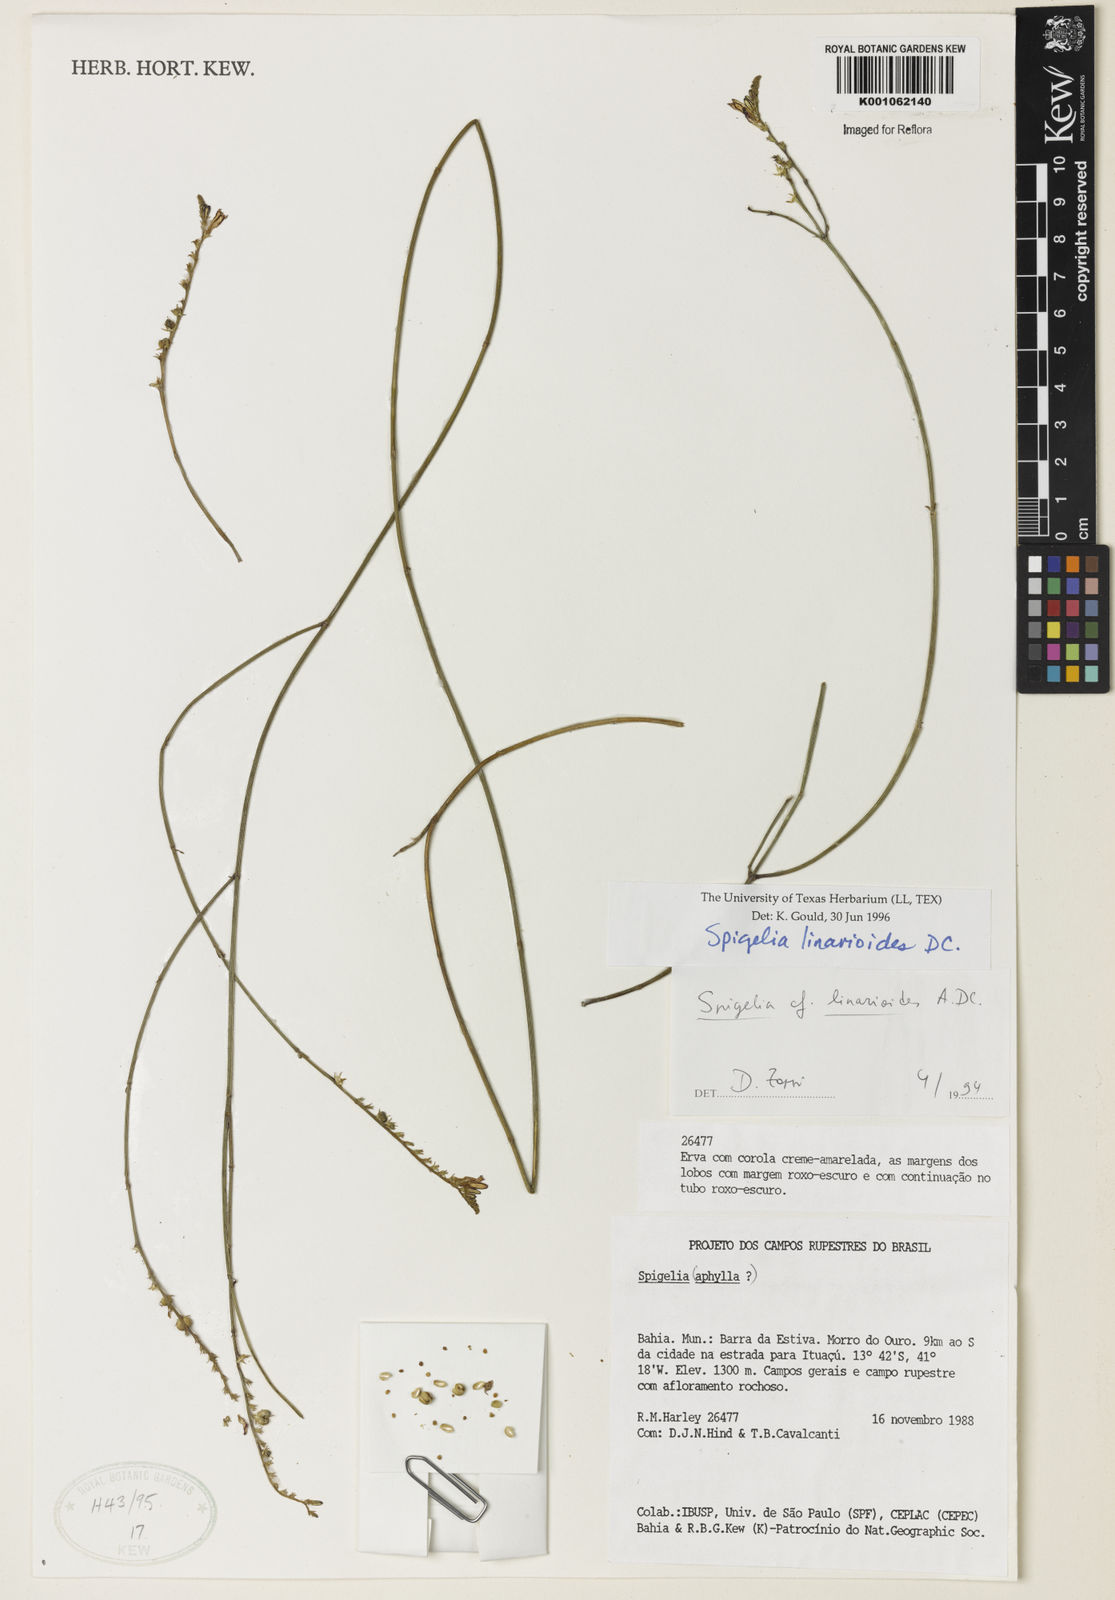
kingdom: Plantae
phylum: Tracheophyta
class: Magnoliopsida
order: Gentianales
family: Loganiaceae
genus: Spigelia
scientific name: Spigelia linarioides
